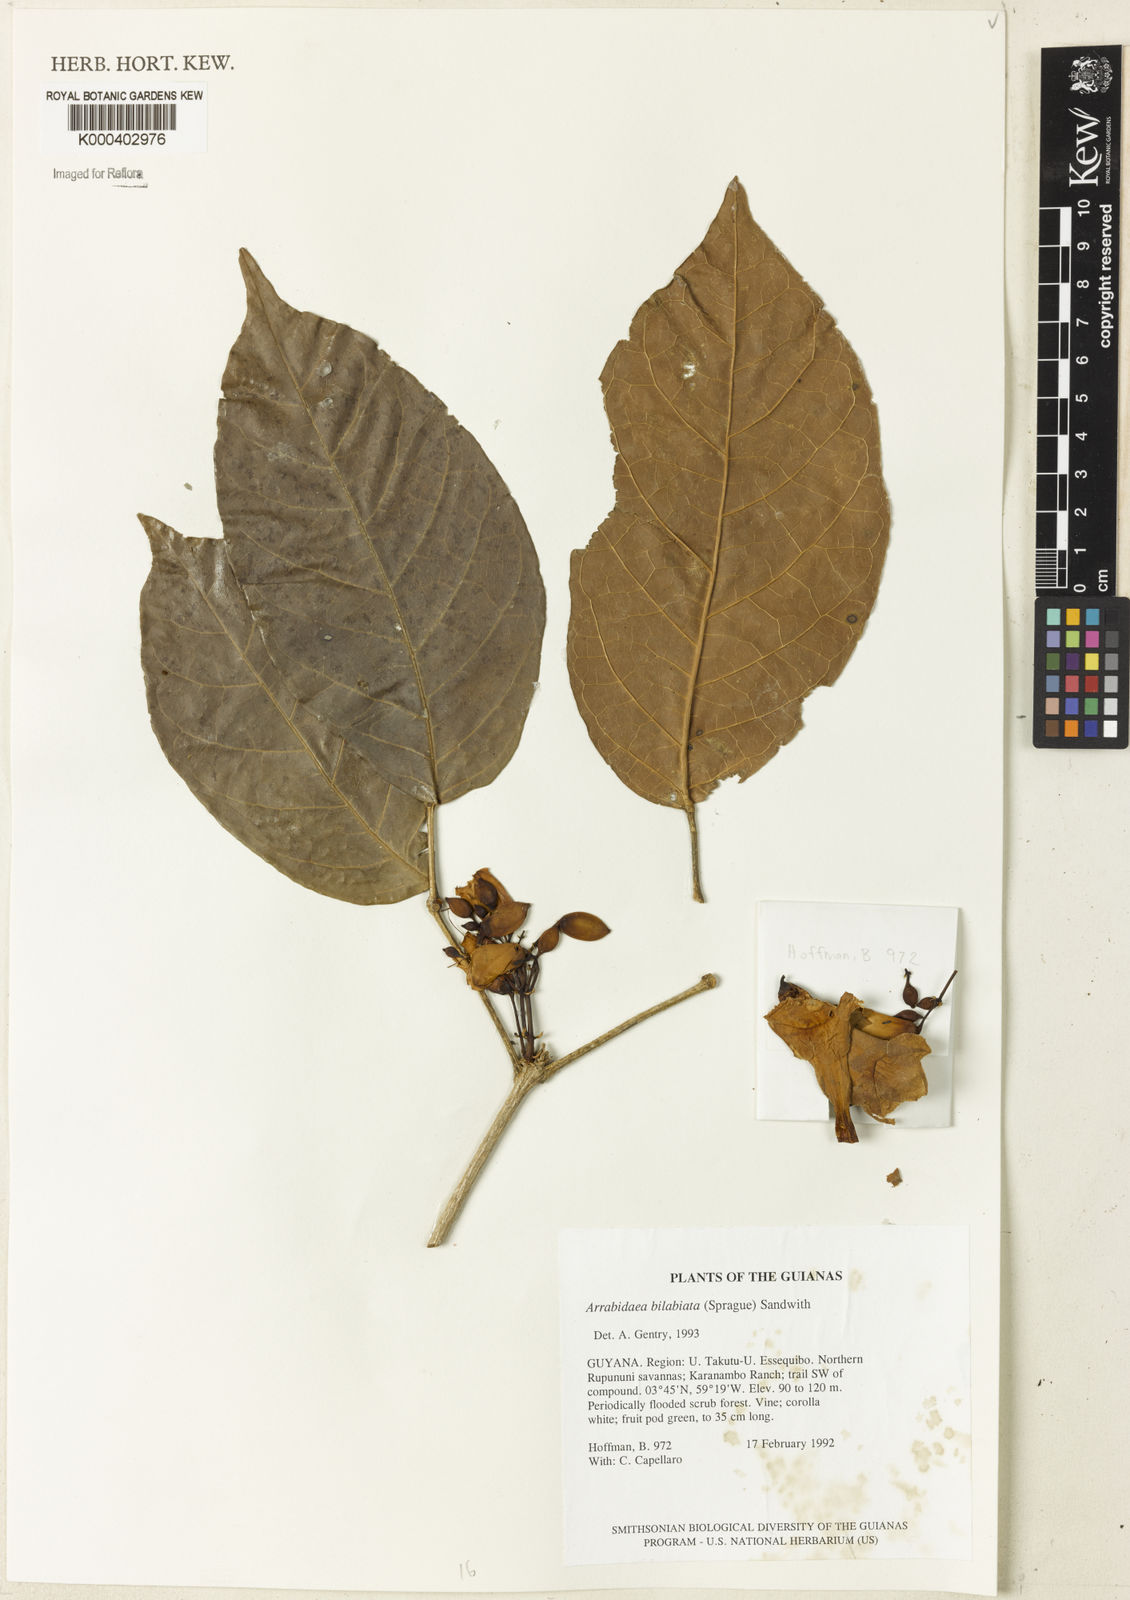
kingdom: Plantae
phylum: Tracheophyta
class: Magnoliopsida
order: Lamiales
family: Bignoniaceae
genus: Tanaecium
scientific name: Tanaecium bilabiatum
